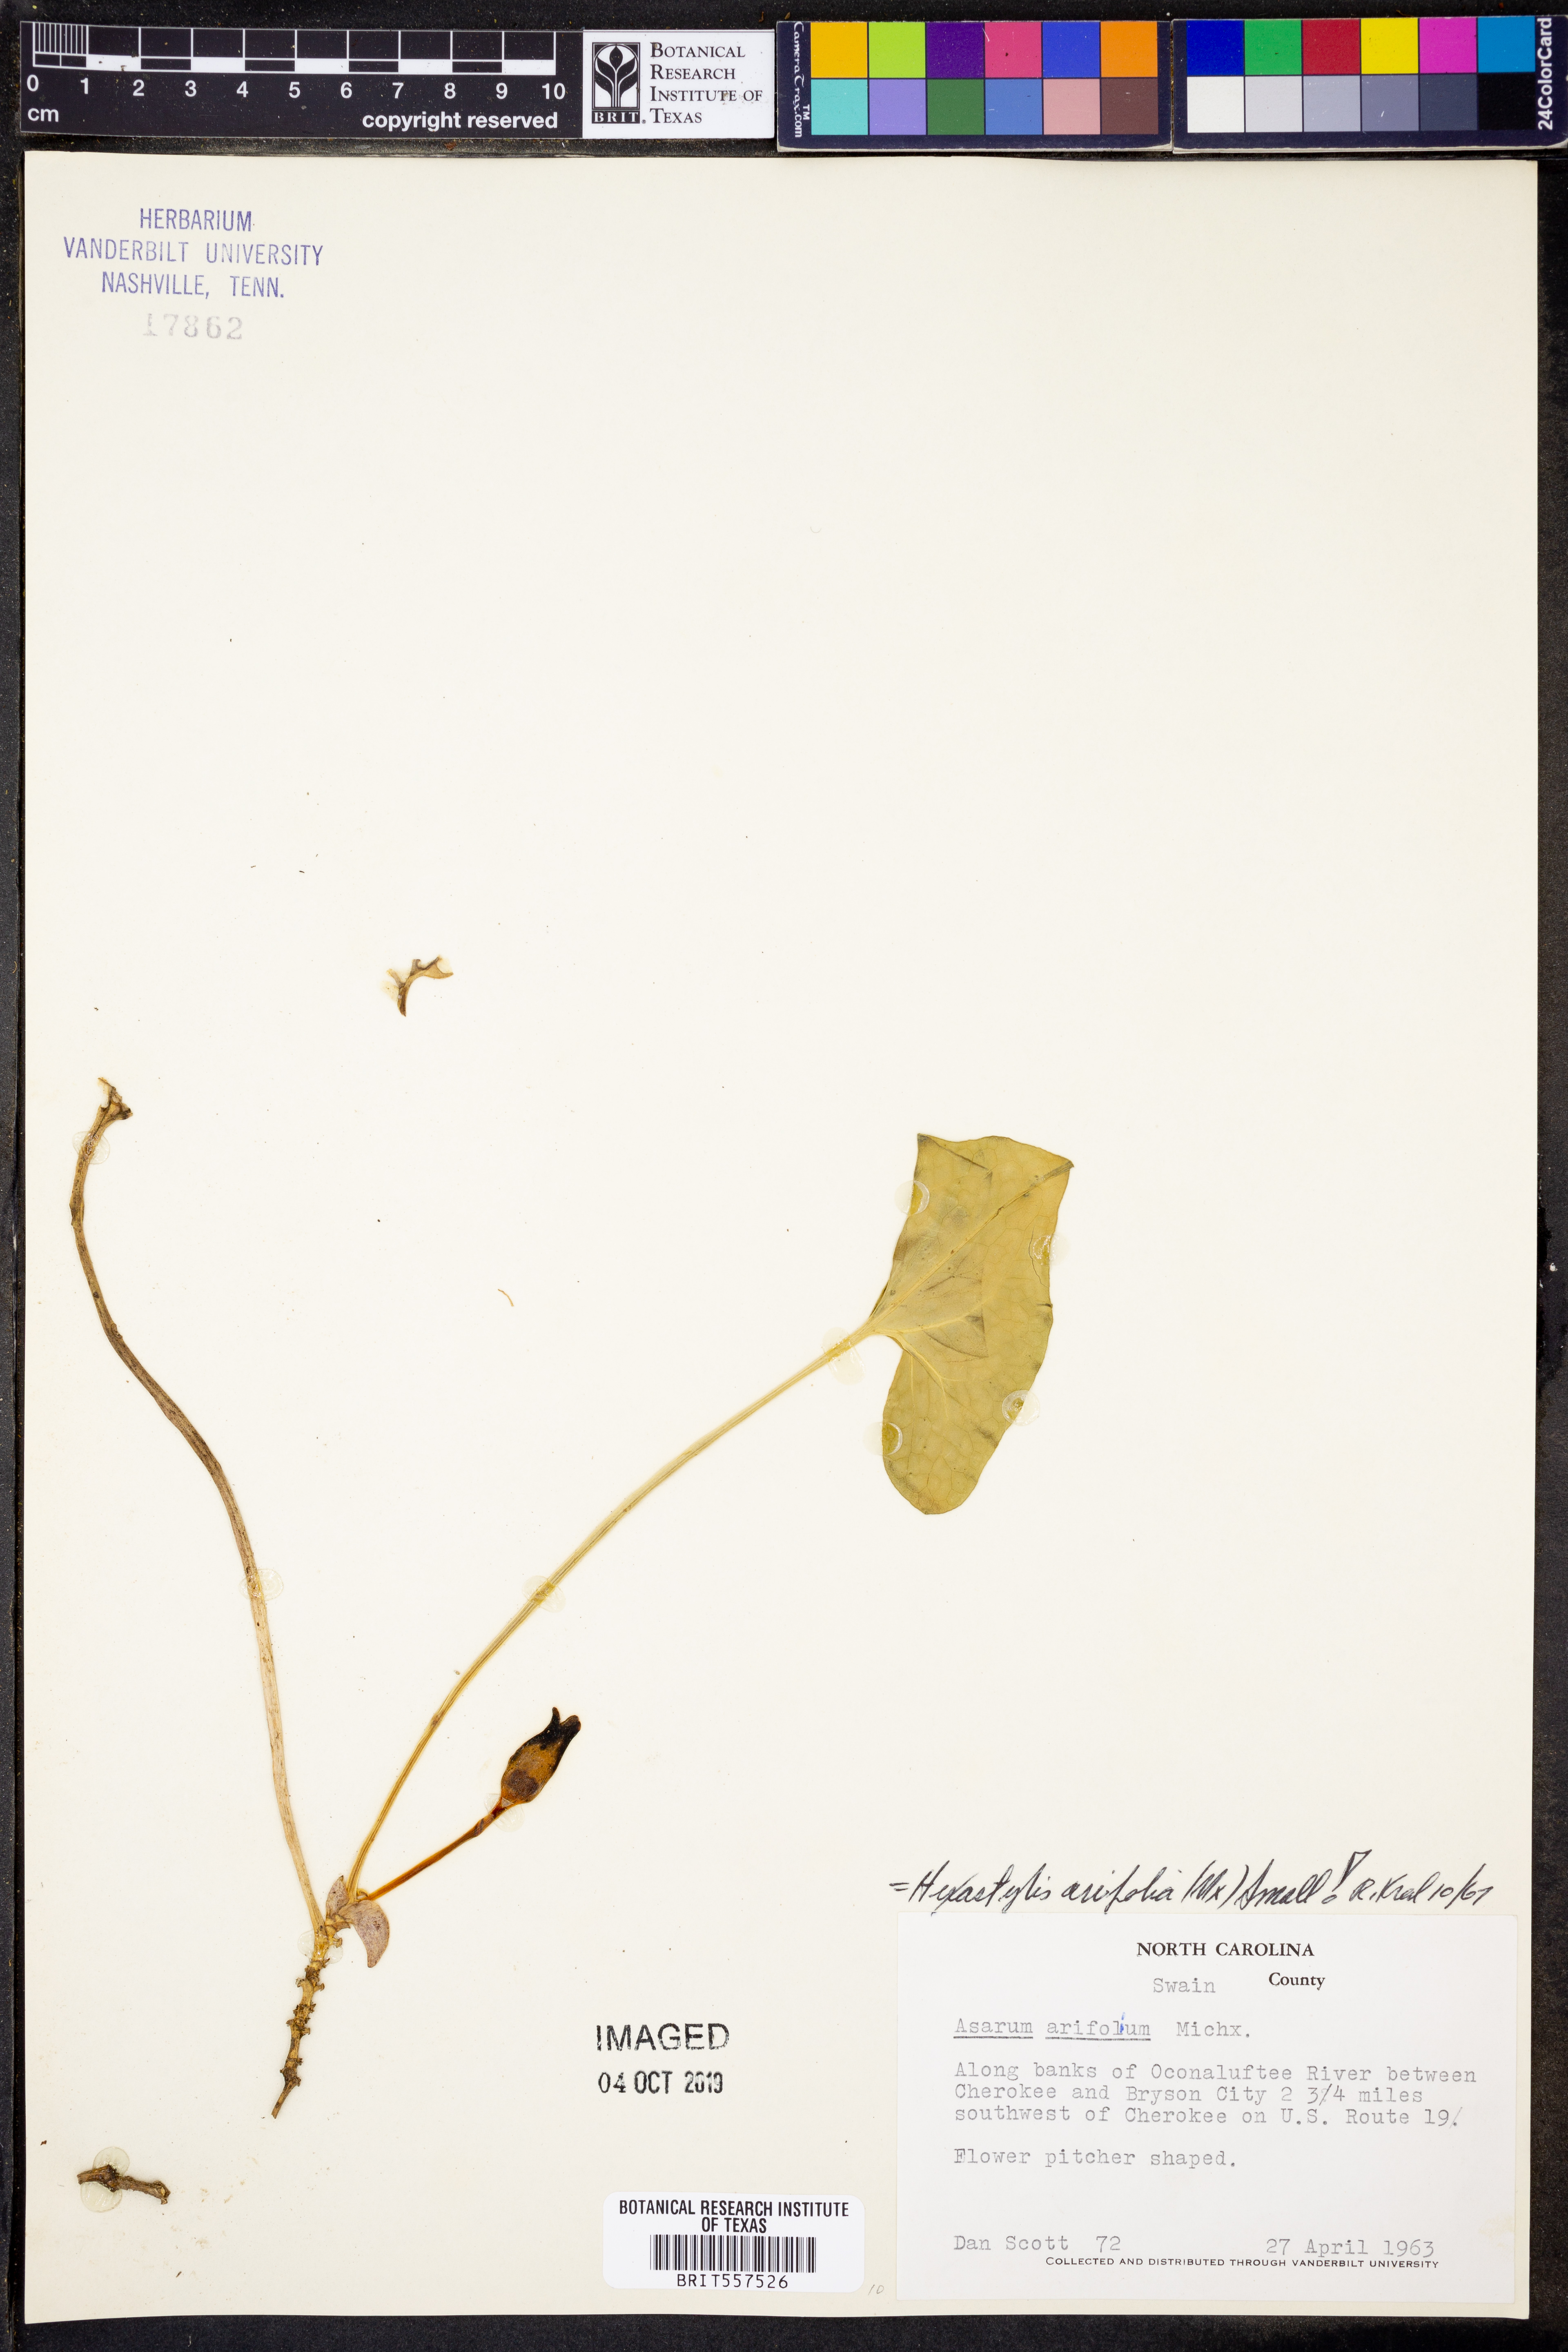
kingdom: Plantae
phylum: Tracheophyta
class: Magnoliopsida
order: Piperales
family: Aristolochiaceae
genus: Hexastylis
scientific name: Hexastylis arifolia
